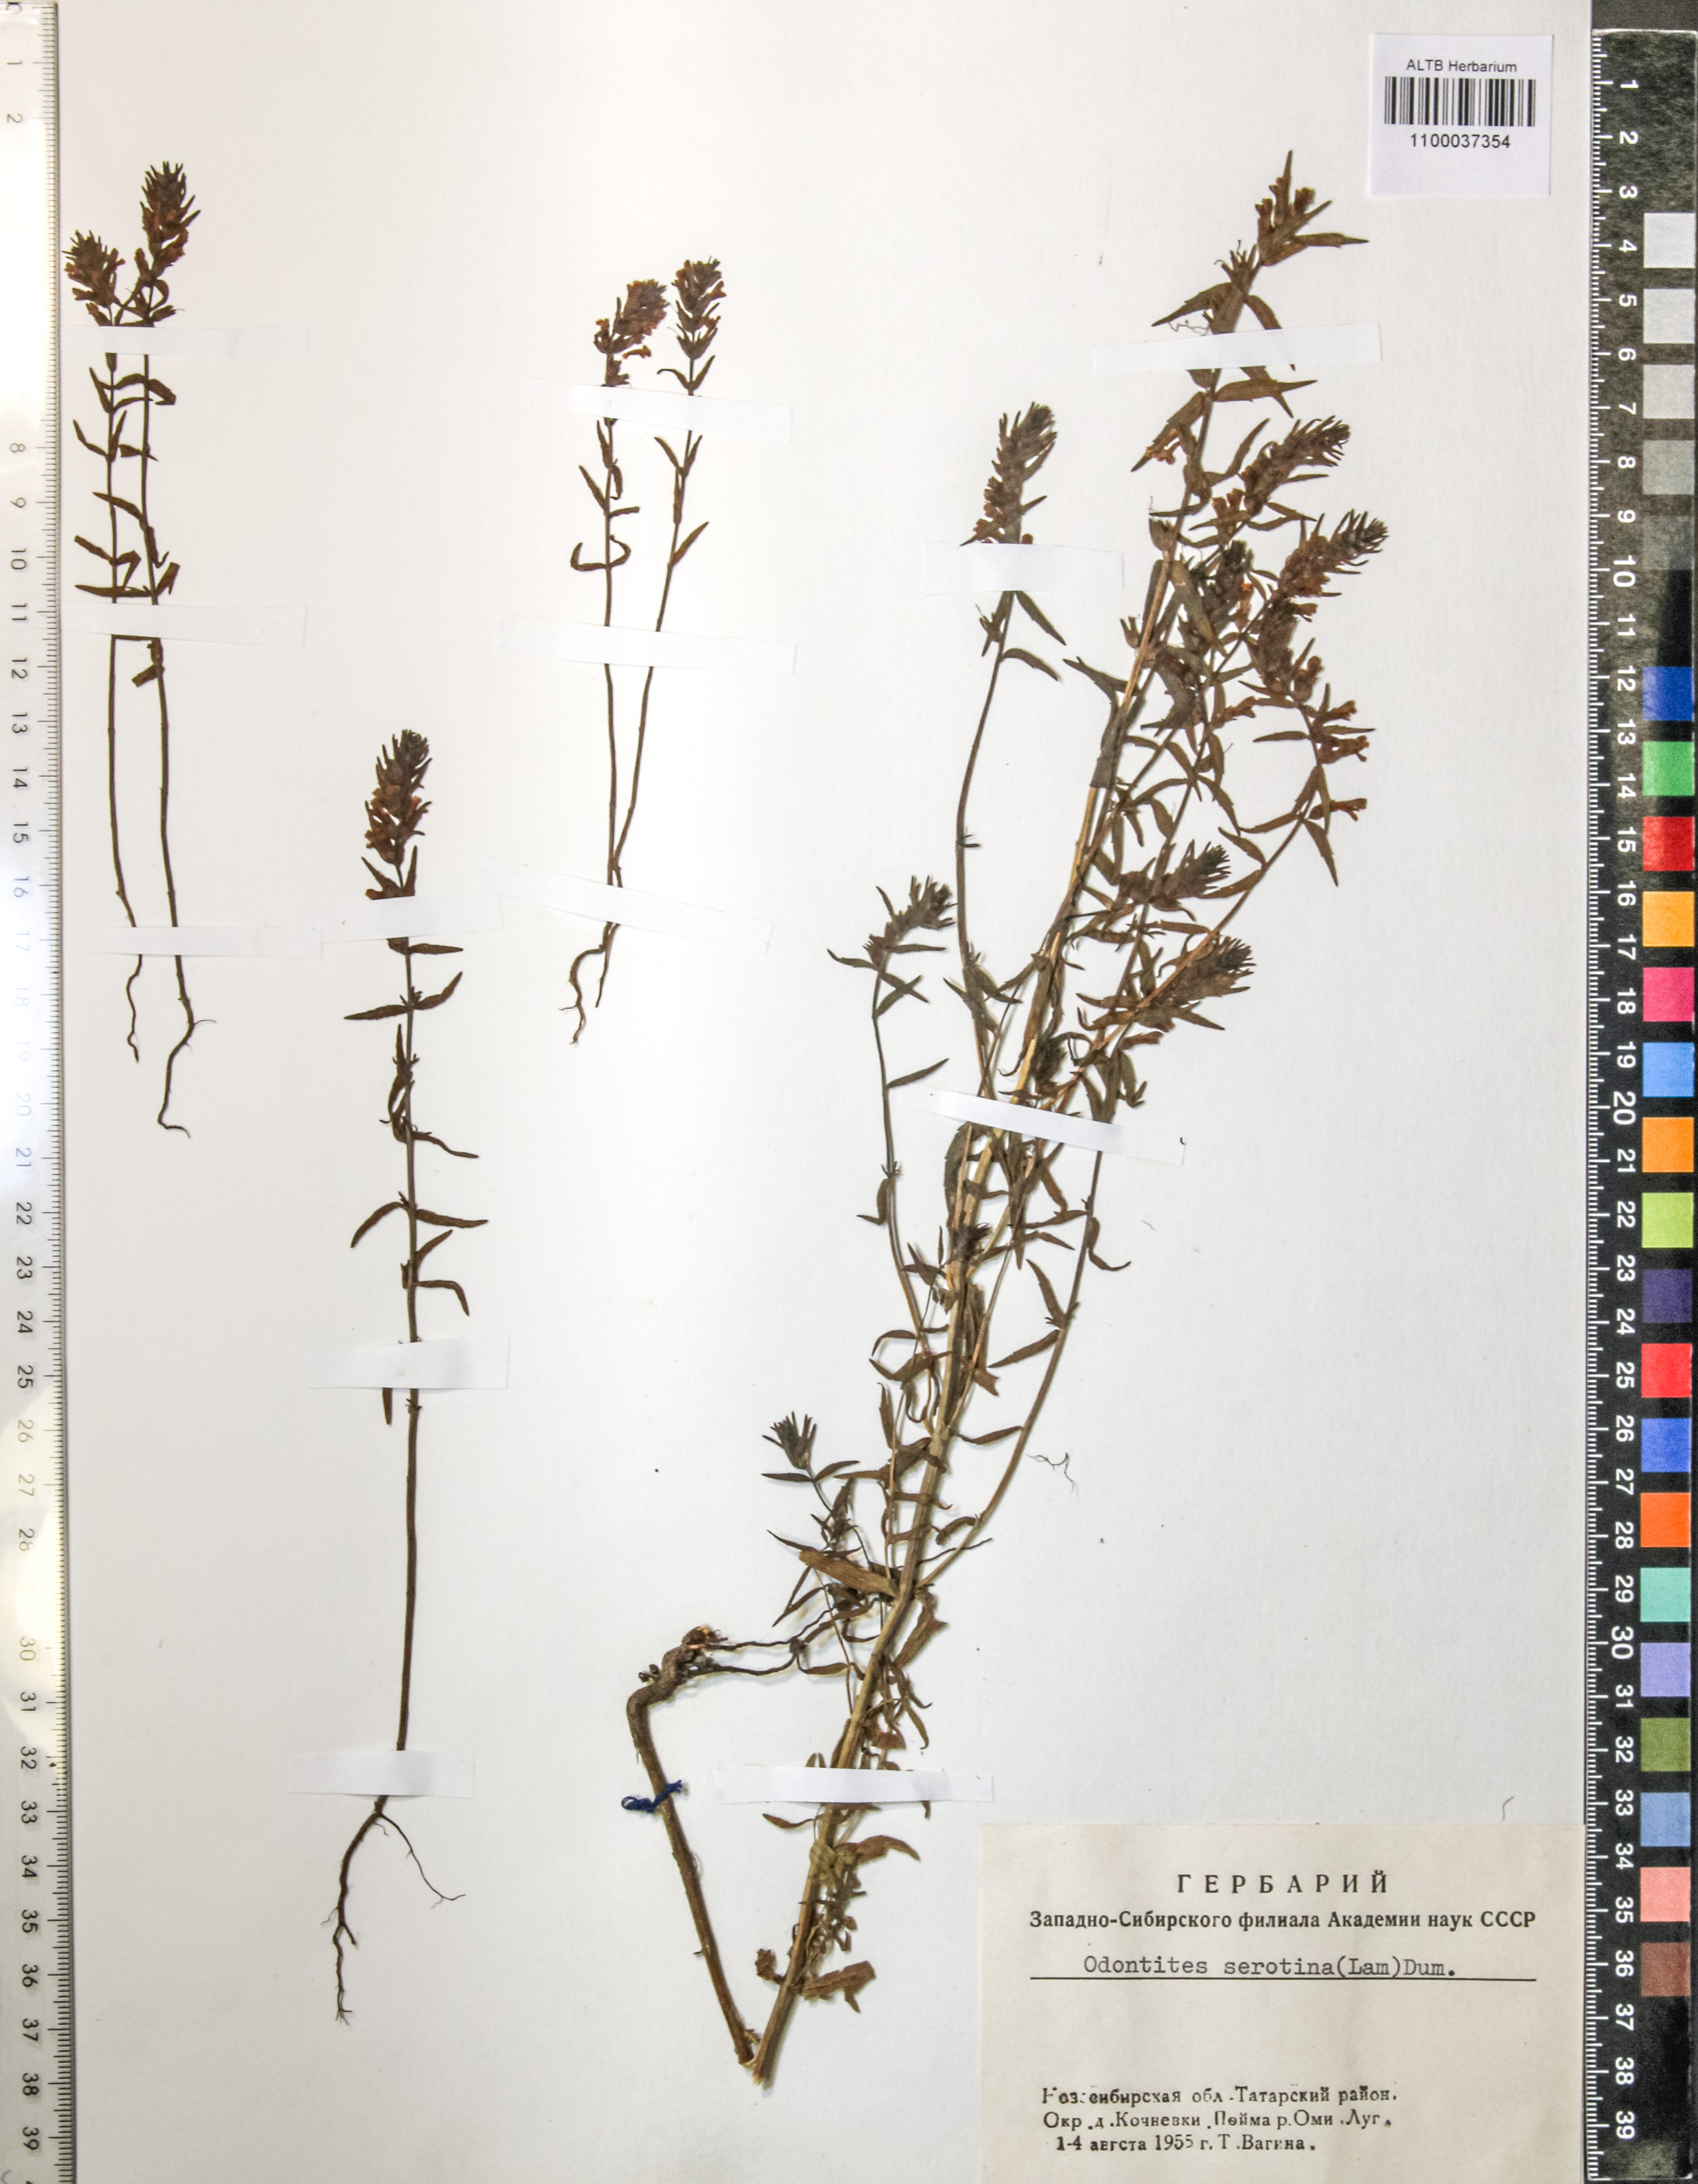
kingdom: Plantae
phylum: Tracheophyta
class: Magnoliopsida
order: Lamiales
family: Orobanchaceae
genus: Odontites
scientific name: Odontites vulgaris
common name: Broomrape
